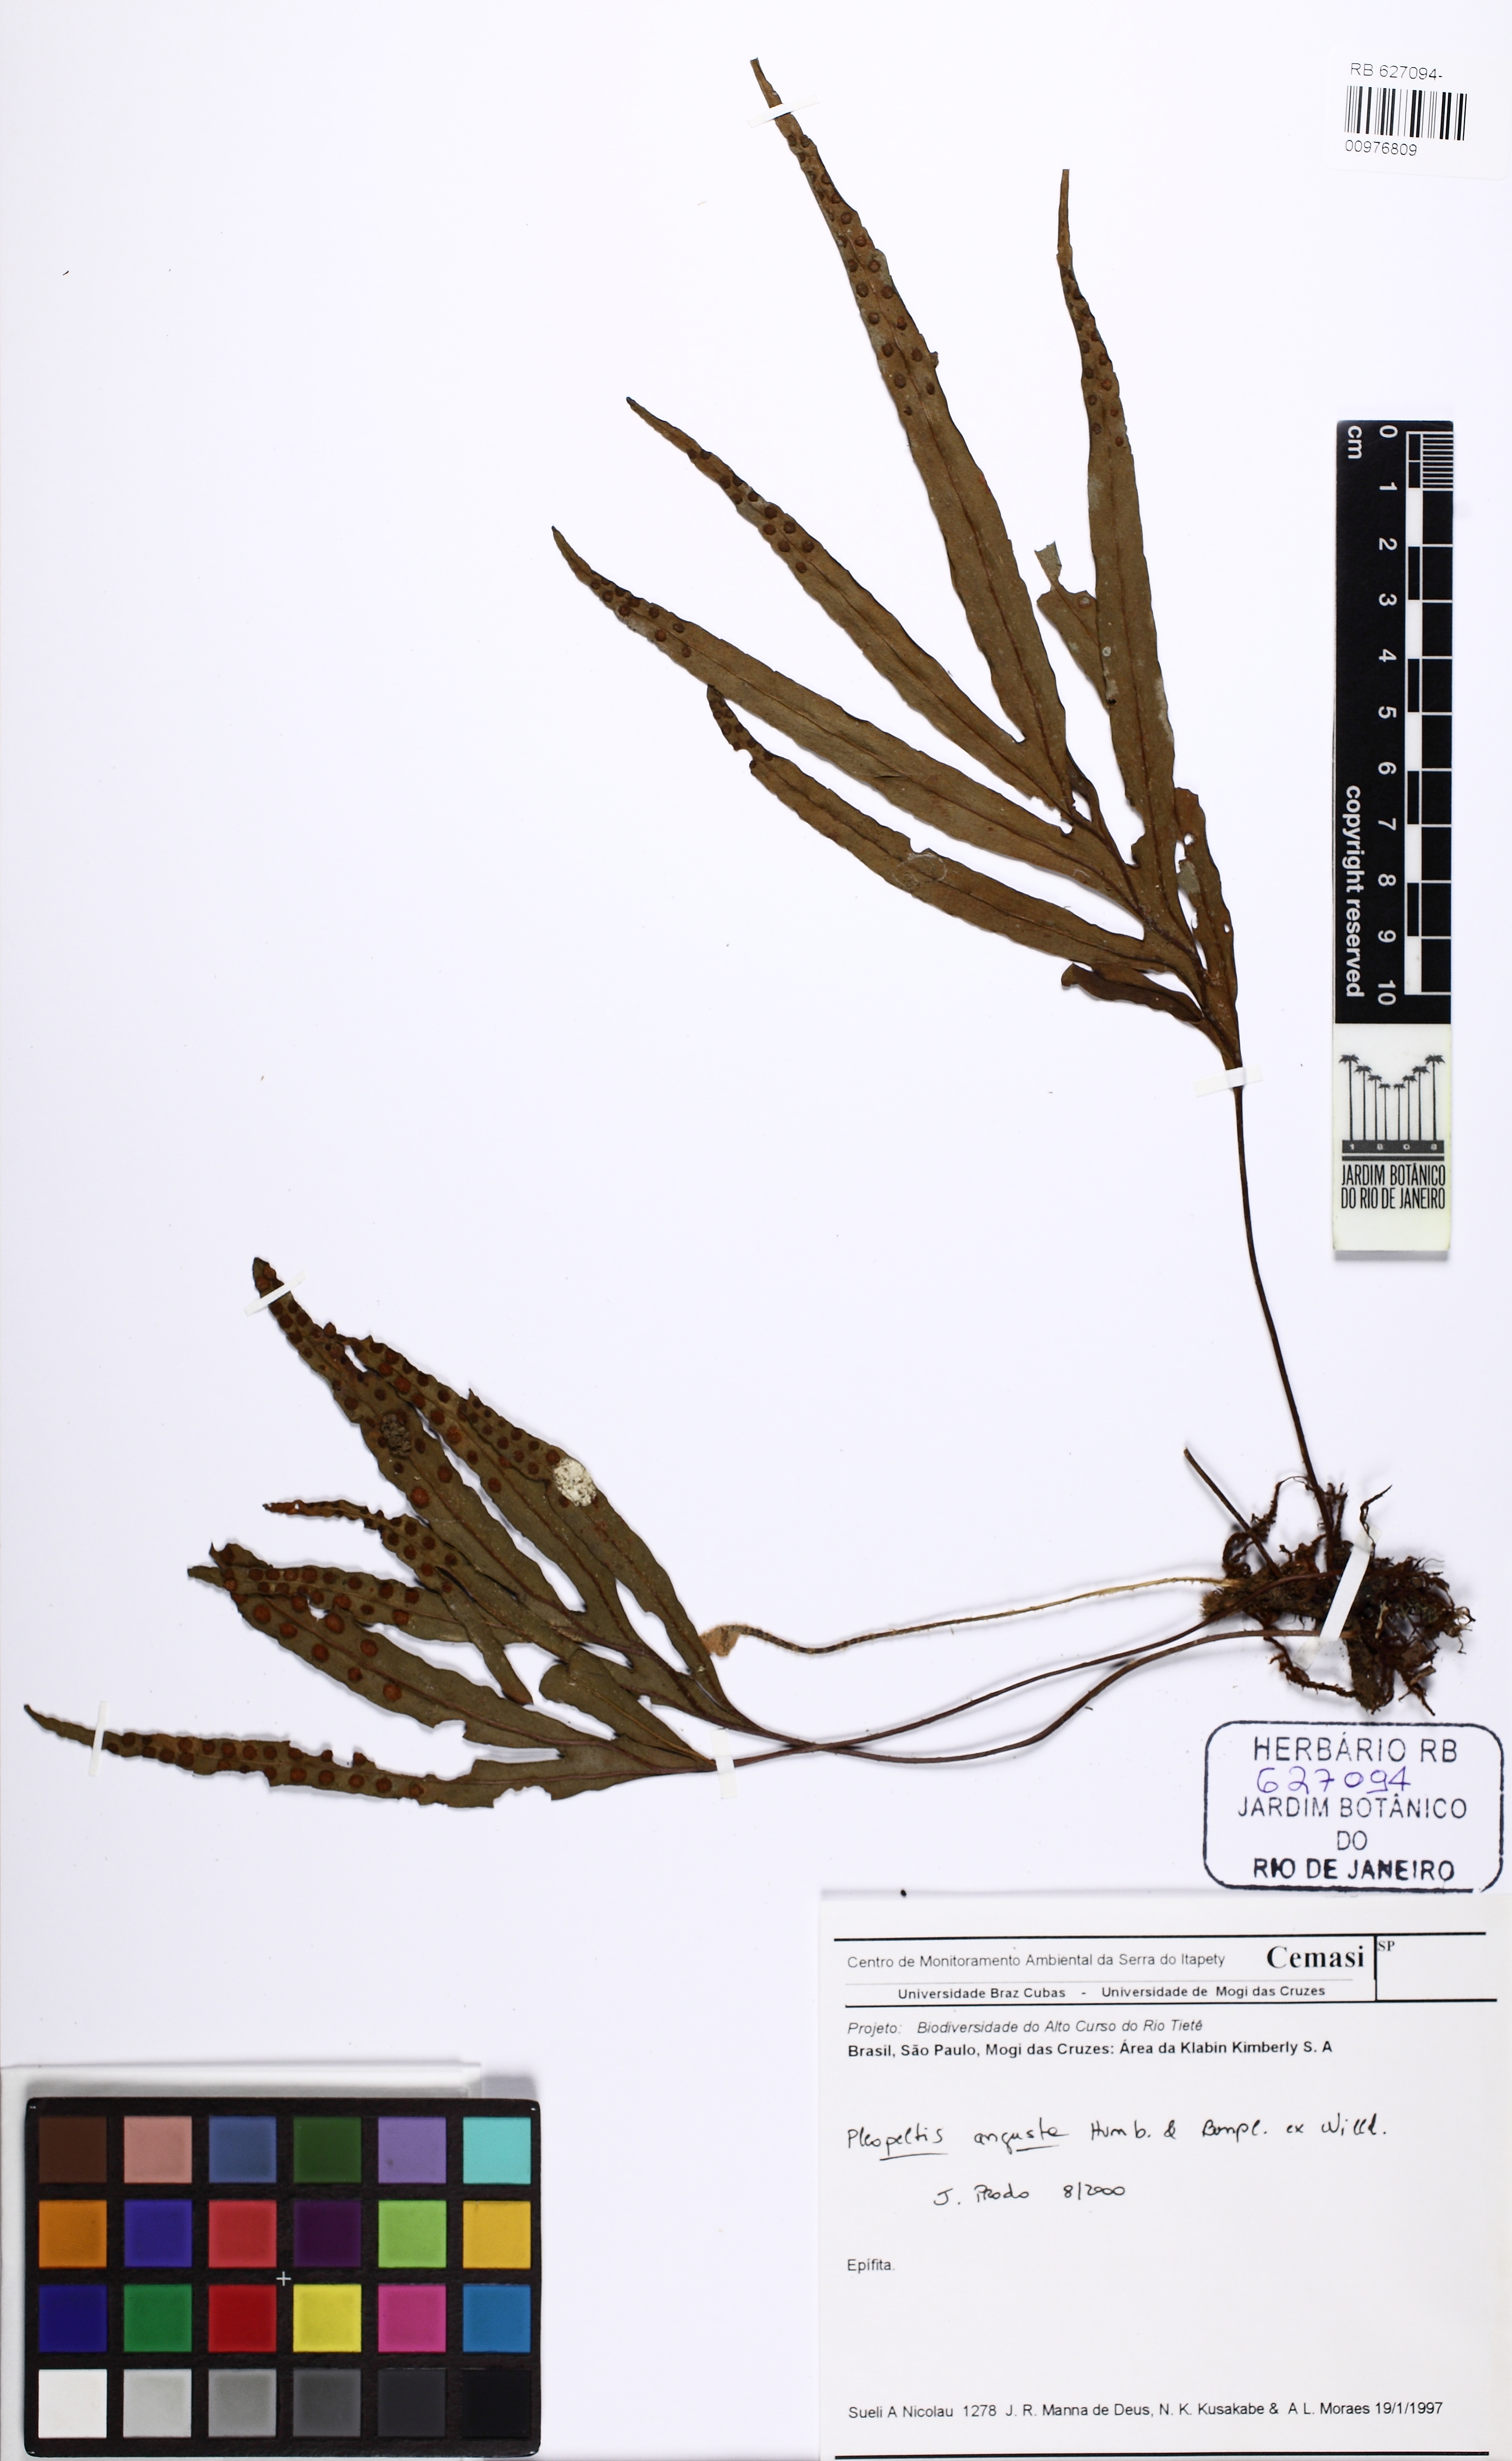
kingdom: Plantae
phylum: Tracheophyta
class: Polypodiopsida
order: Polypodiales
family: Polypodiaceae
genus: Pleopeltis
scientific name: Pleopeltis pleopeltifolia
